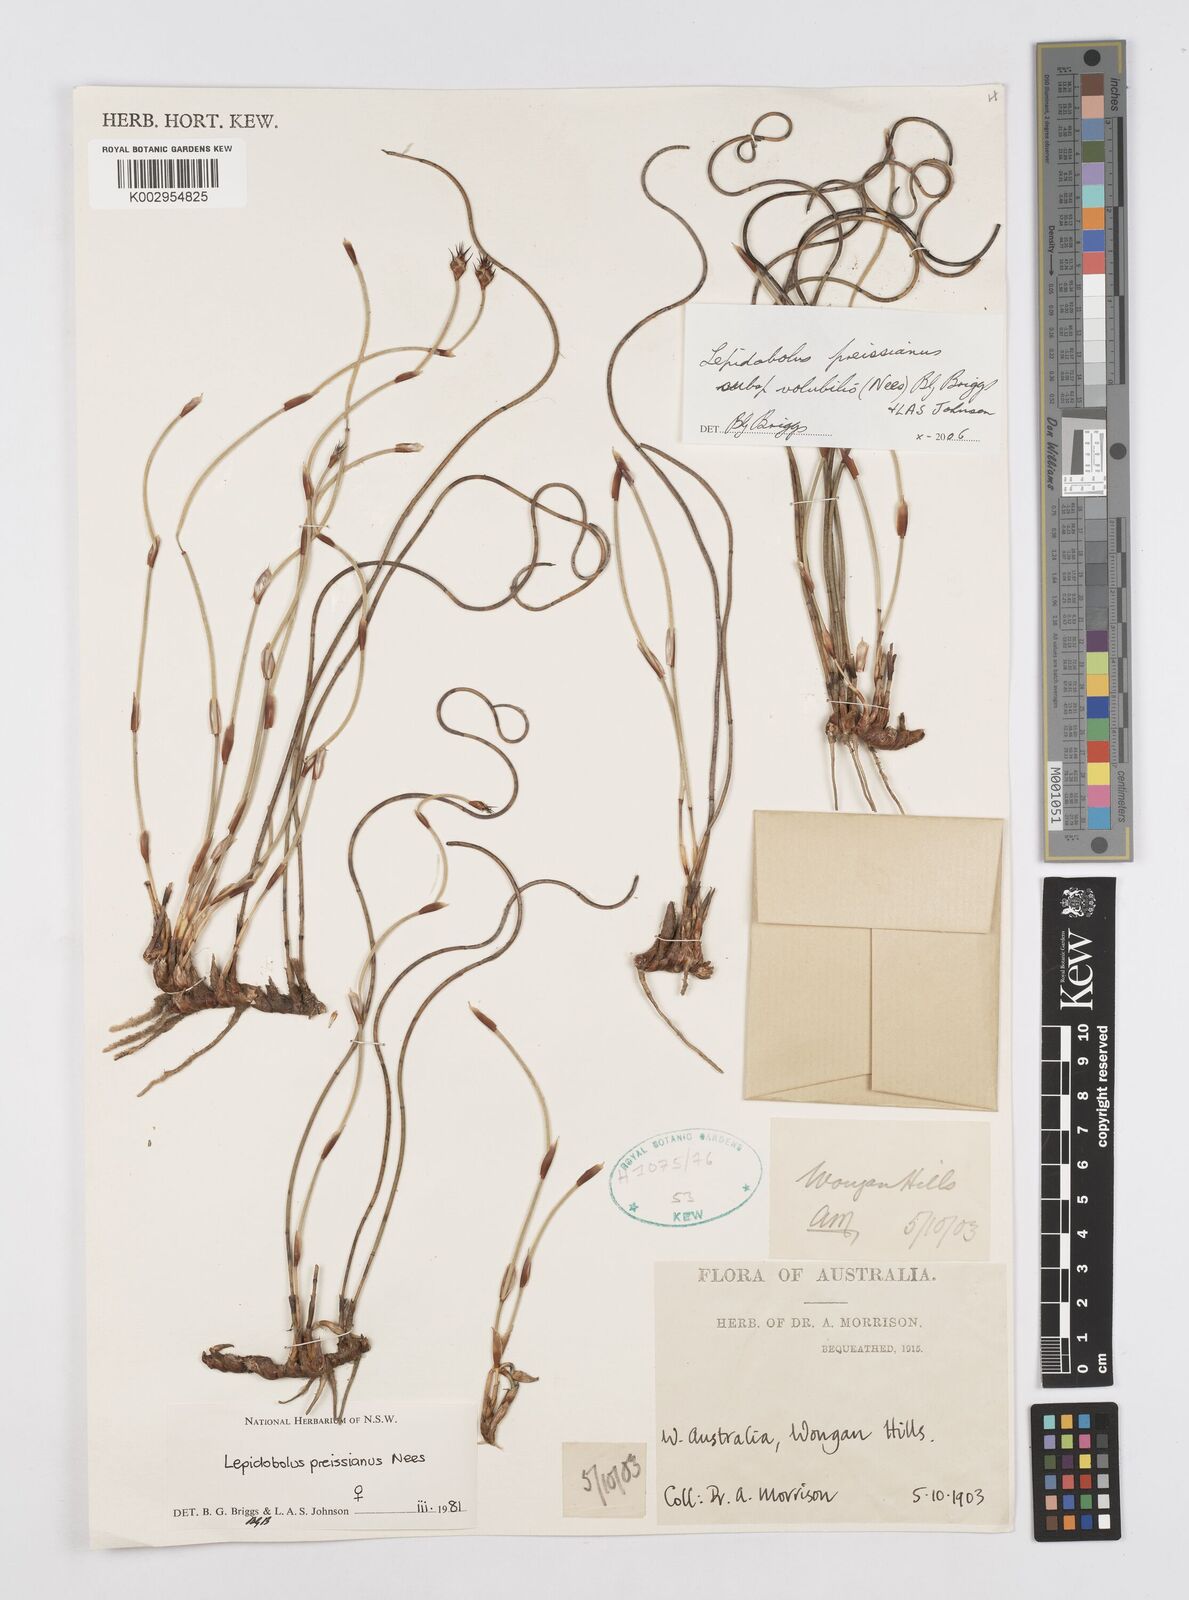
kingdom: Plantae
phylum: Tracheophyta
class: Liliopsida
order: Poales
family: Restionaceae
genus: Lepidobolus
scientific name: Lepidobolus preissianus
